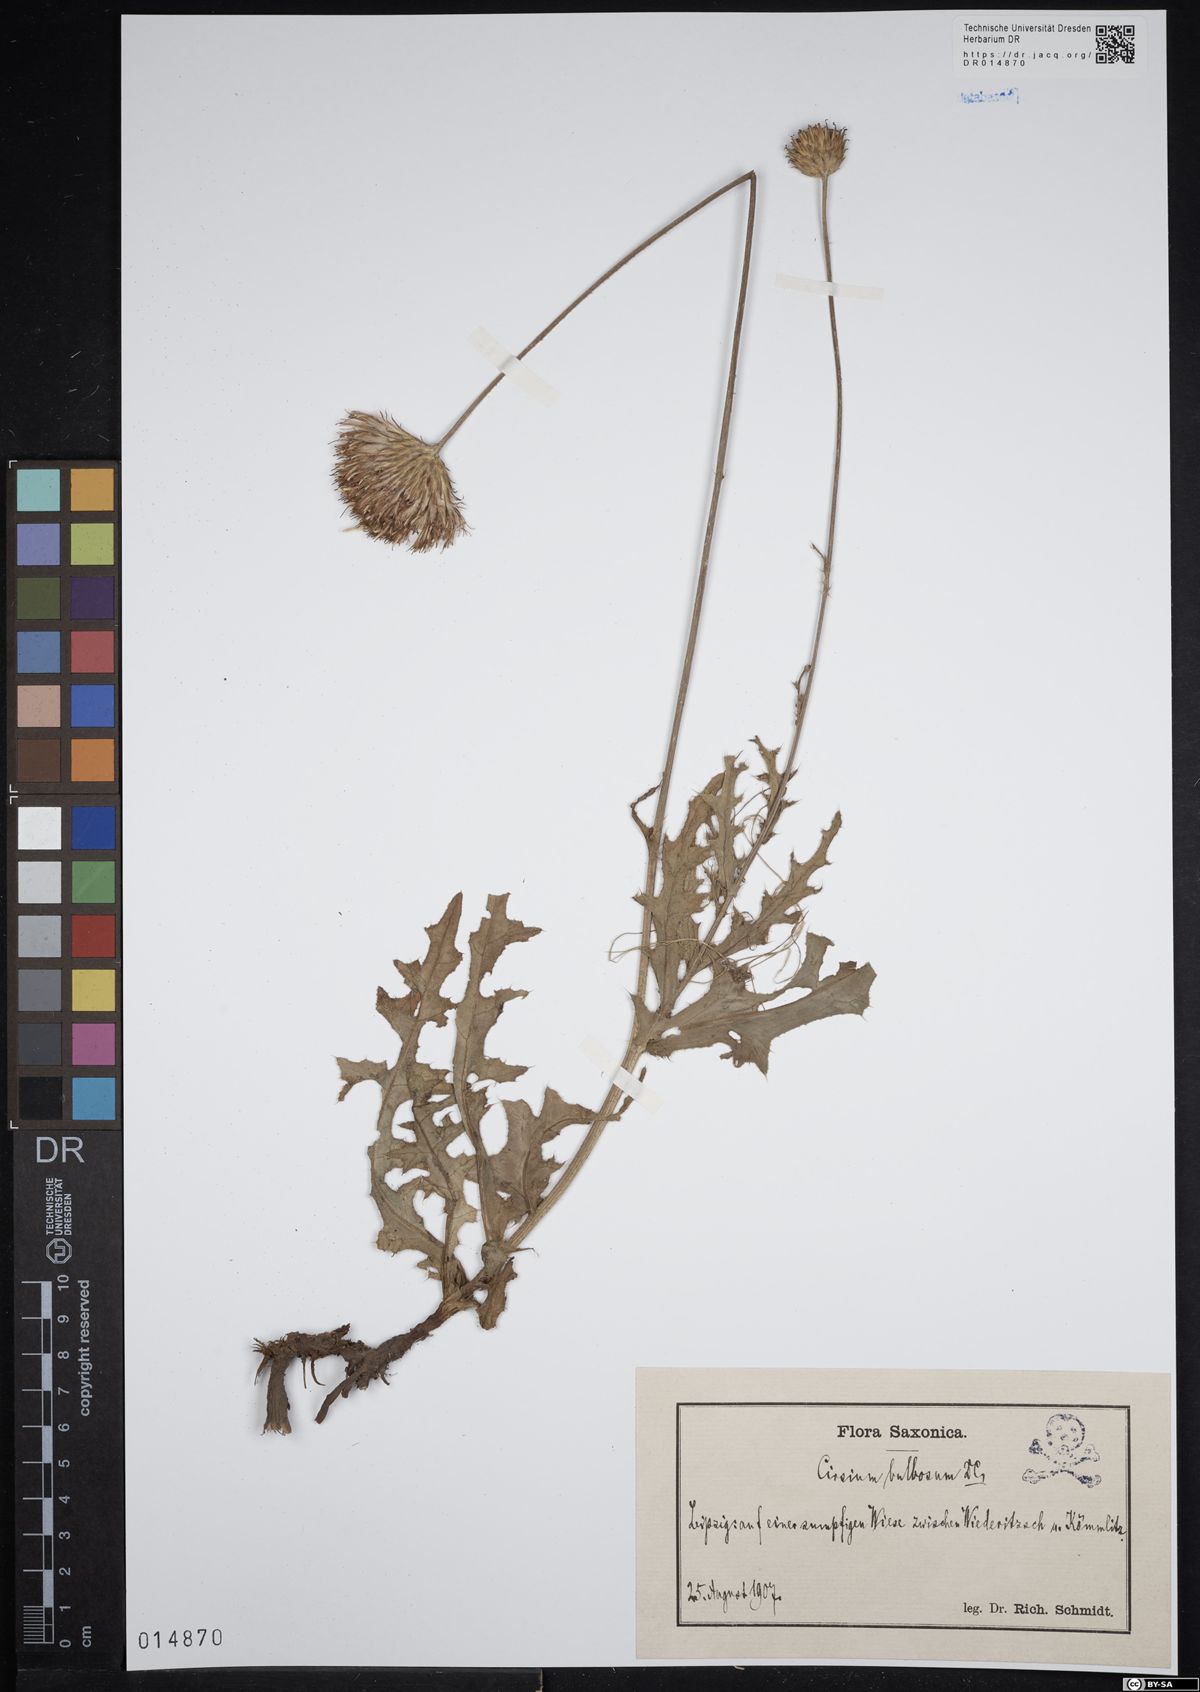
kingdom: Plantae
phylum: Tracheophyta
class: Magnoliopsida
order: Asterales
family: Asteraceae
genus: Cirsium
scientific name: Cirsium tuberosum
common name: Tuberous thistle
